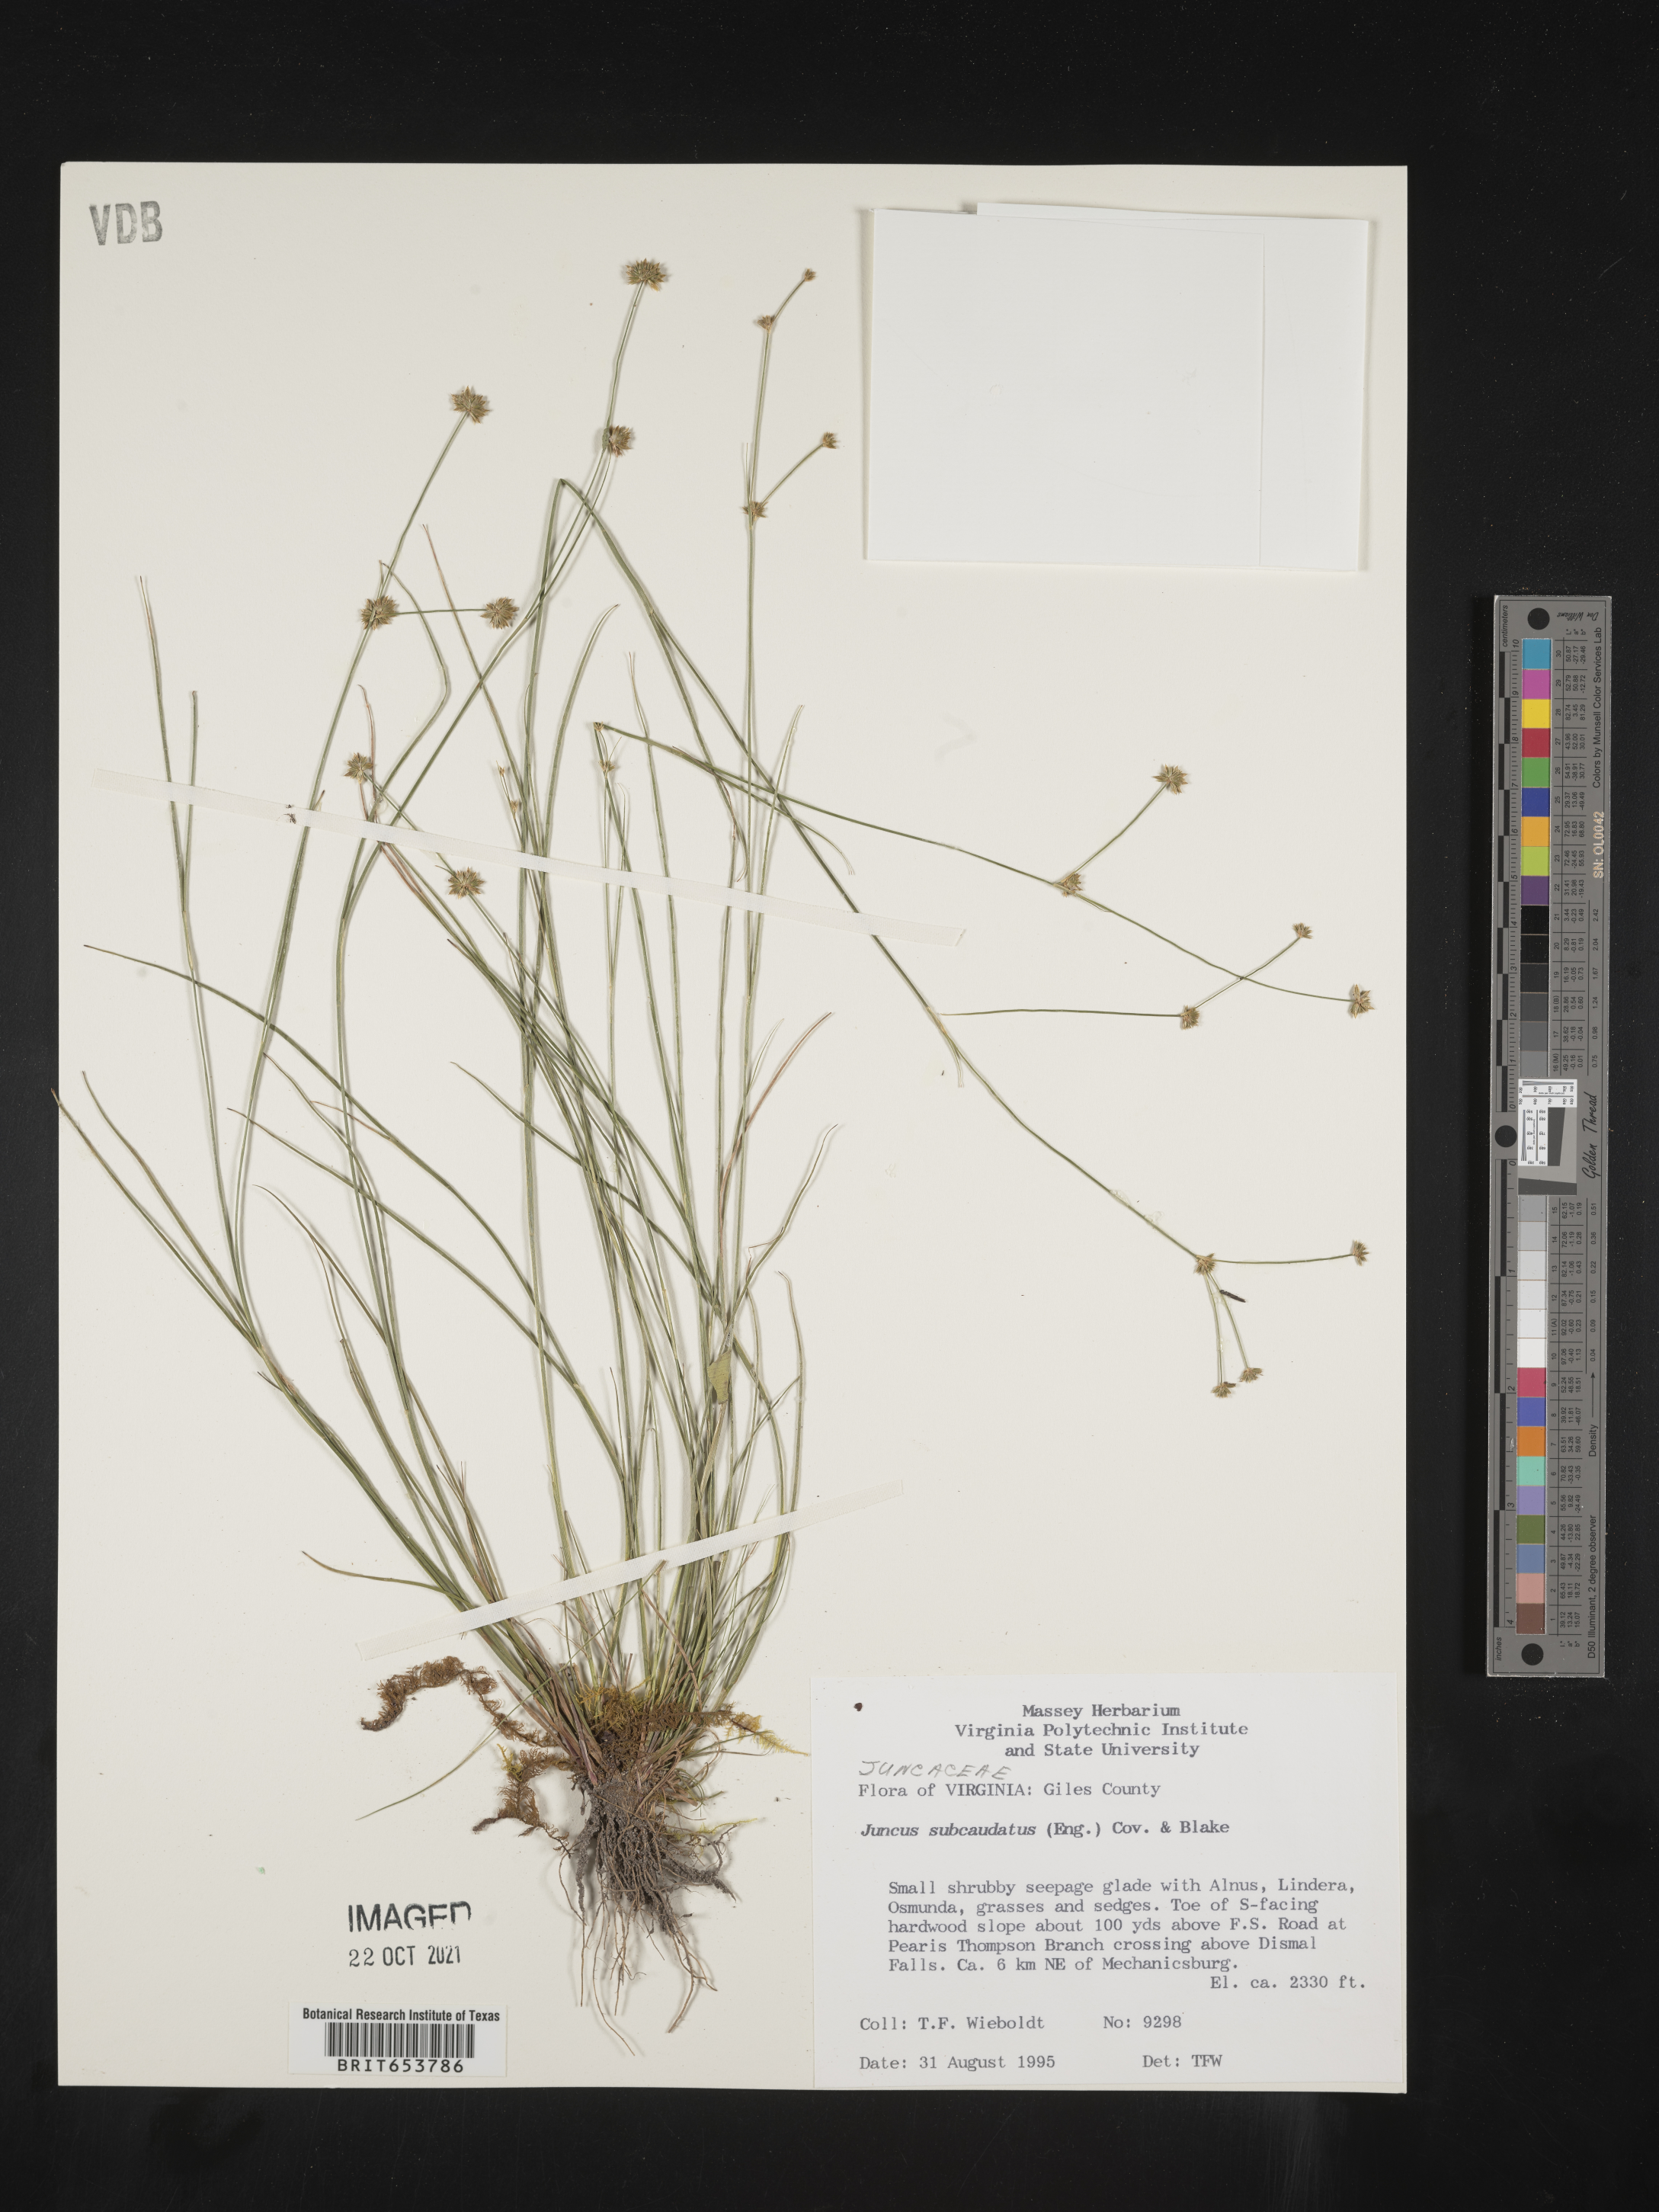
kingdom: Plantae
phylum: Tracheophyta
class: Liliopsida
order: Poales
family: Juncaceae
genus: Juncus
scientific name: Juncus subcaudatus
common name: Engelmann's rush
